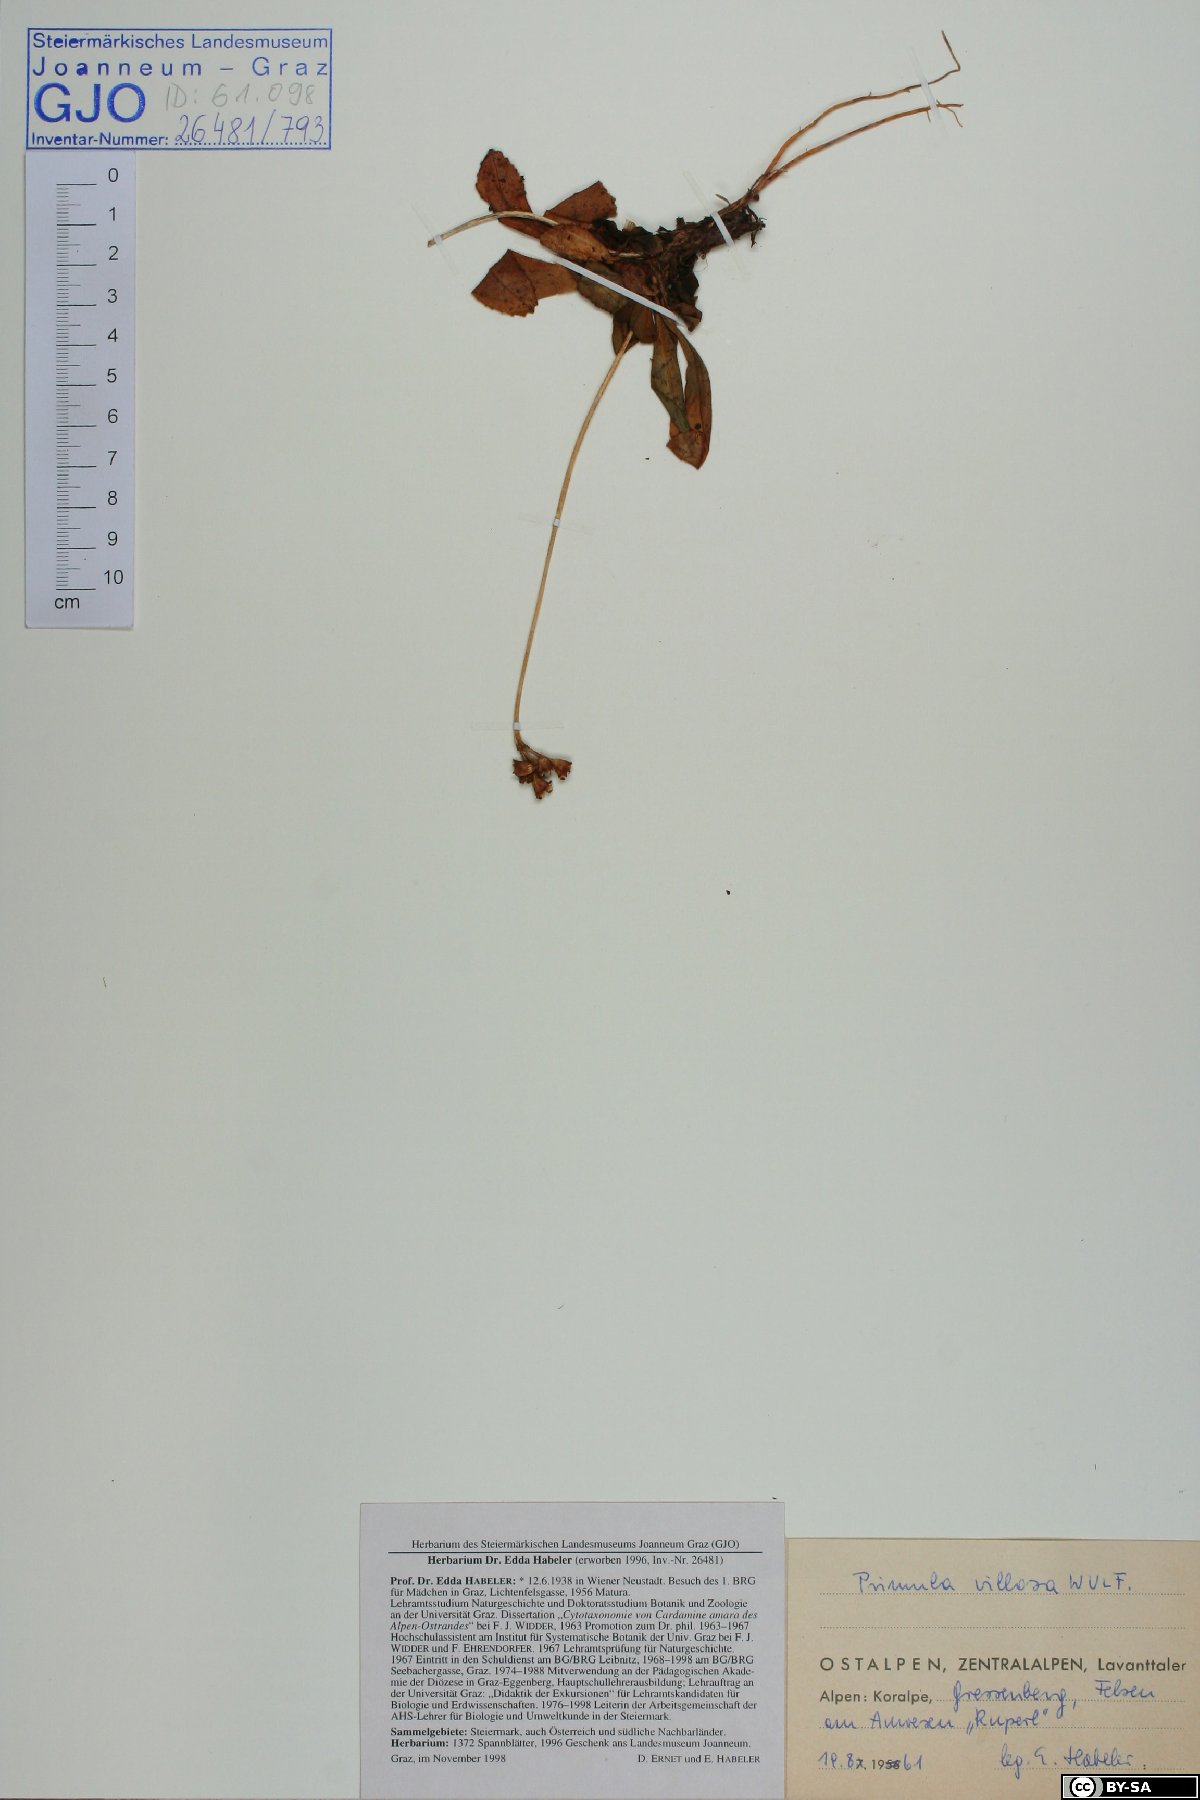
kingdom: Plantae
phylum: Tracheophyta
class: Magnoliopsida
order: Ericales
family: Primulaceae
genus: Primula
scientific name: Primula villosa
